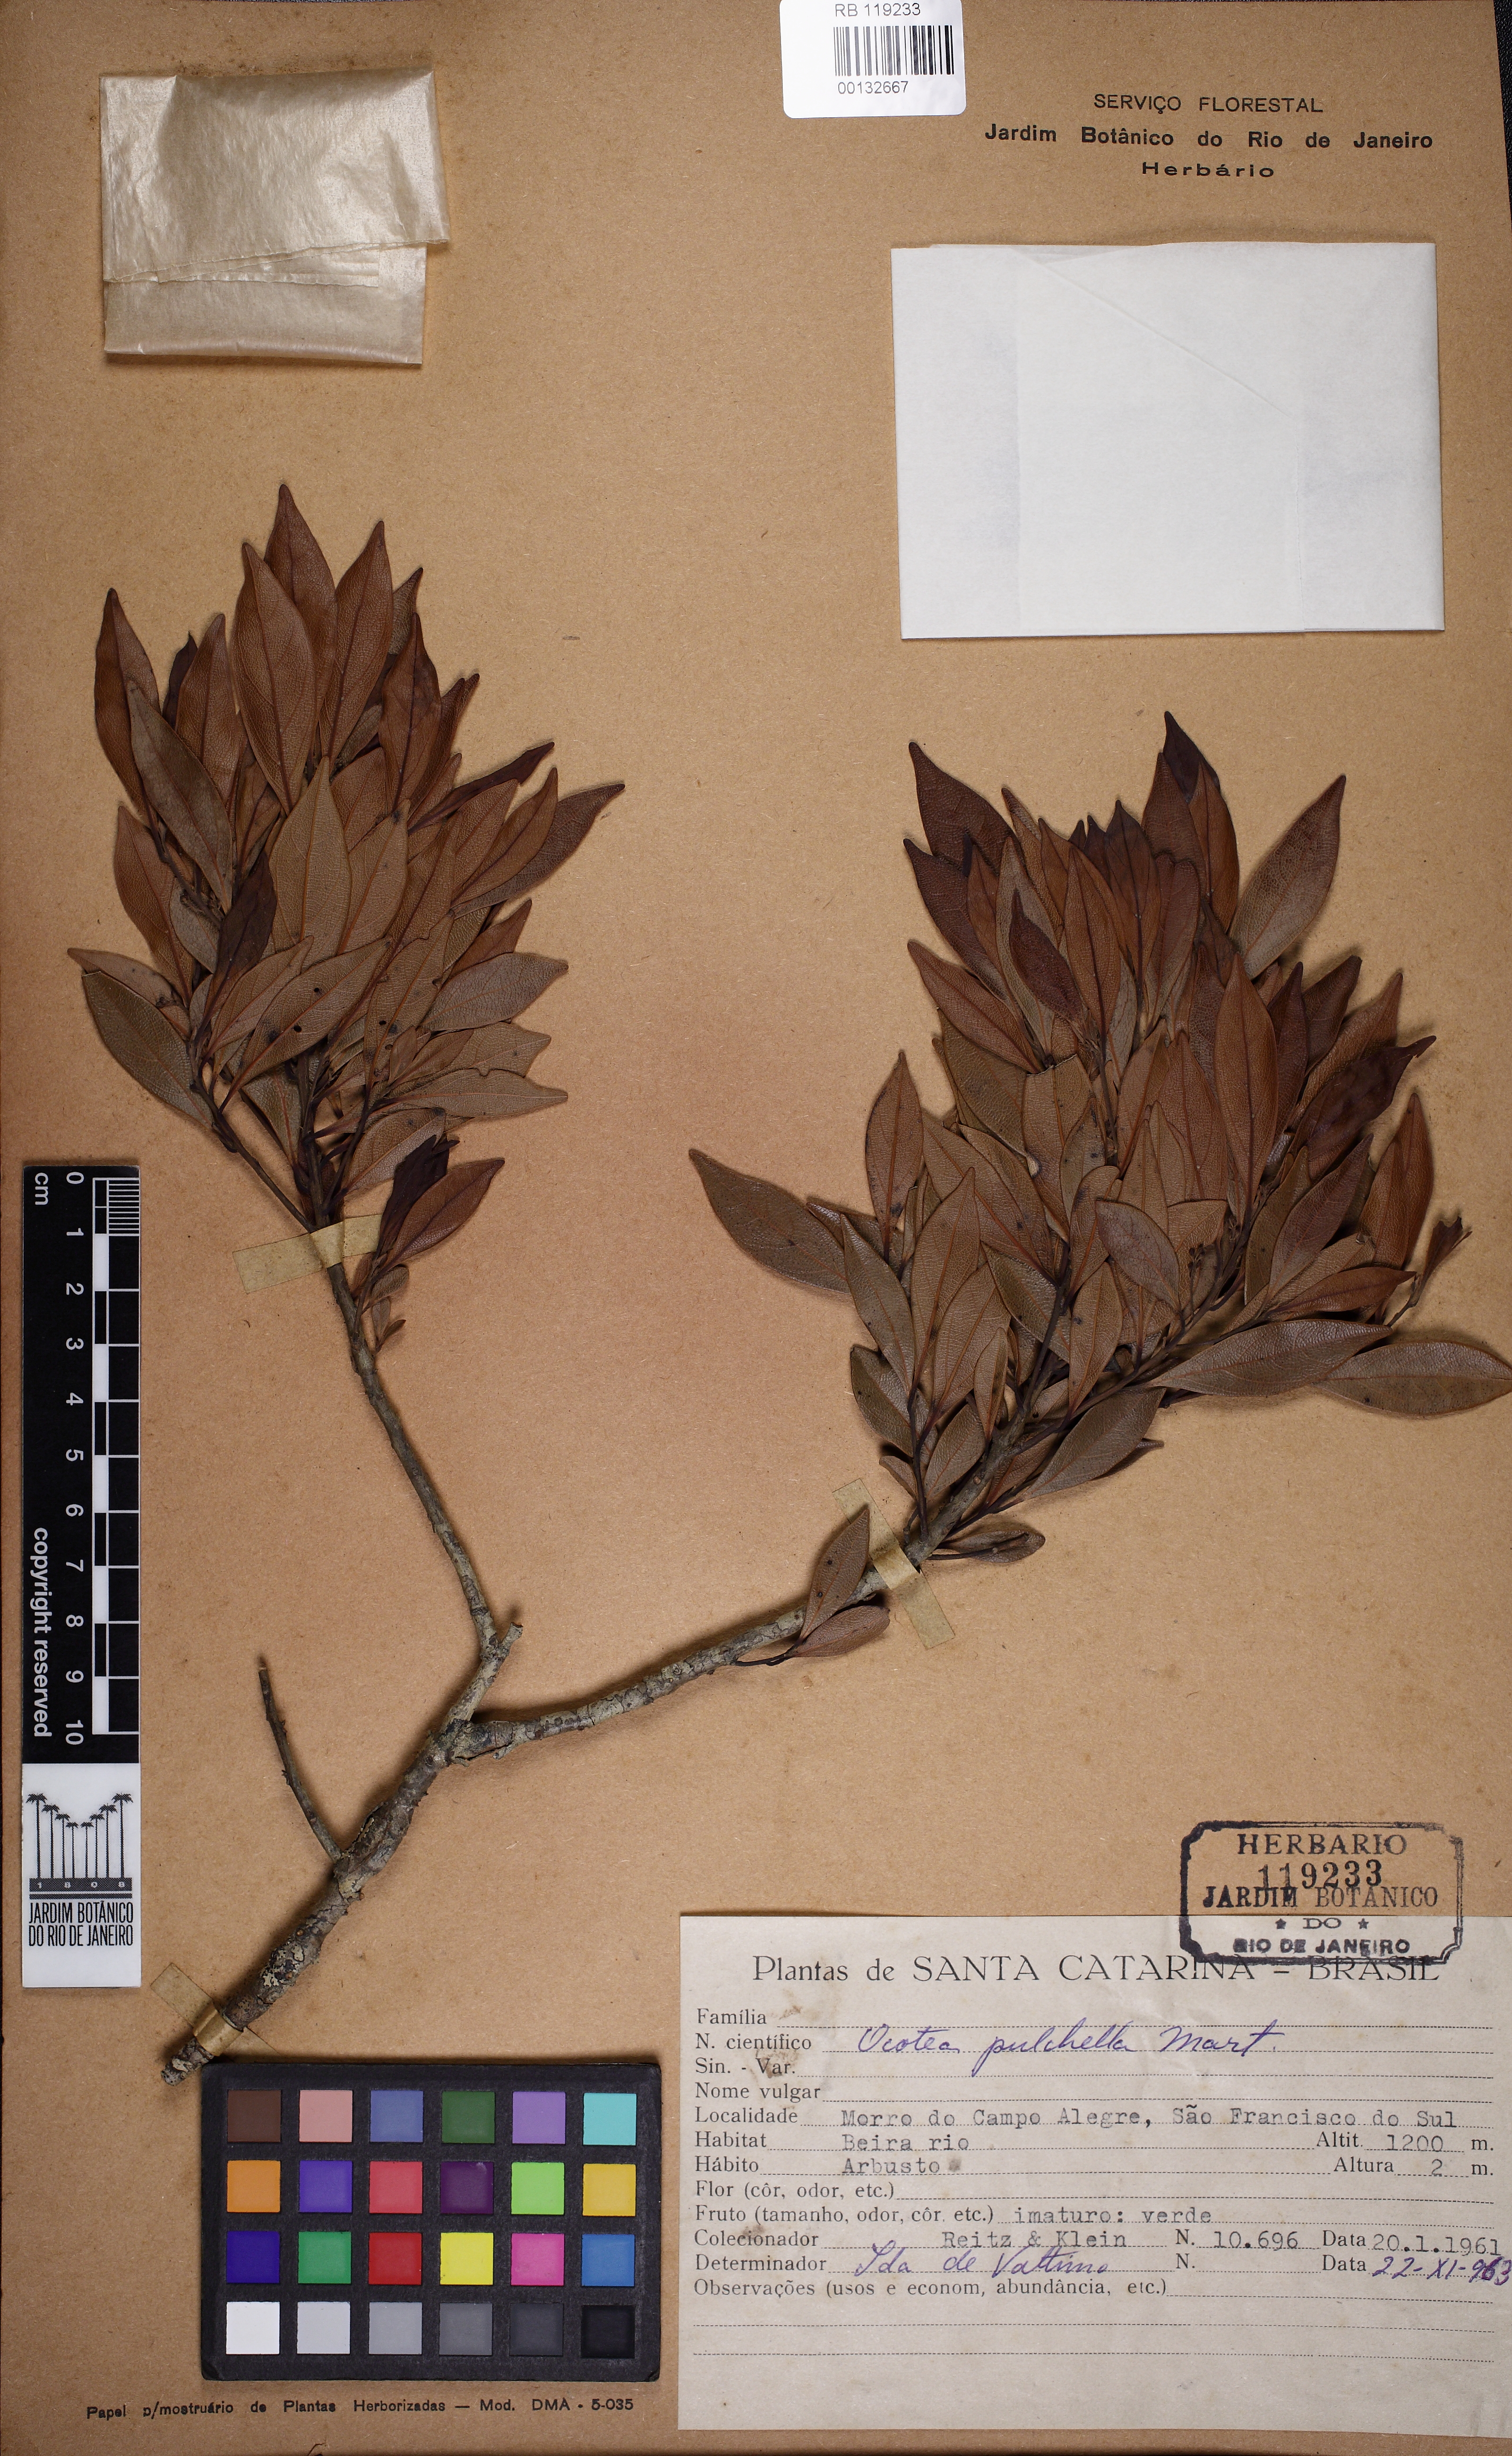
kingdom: Plantae
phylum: Tracheophyta
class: Magnoliopsida
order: Laurales
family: Lauraceae
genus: Mespilodaphne
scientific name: Mespilodaphne pulchella
